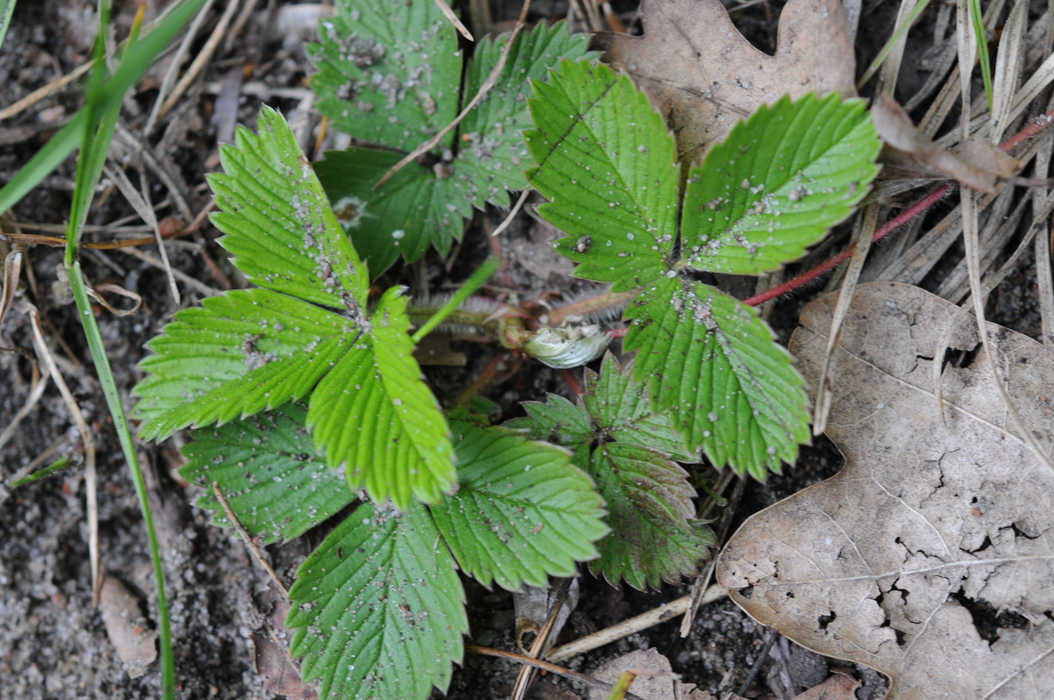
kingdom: Plantae
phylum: Tracheophyta
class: Magnoliopsida
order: Rosales
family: Rosaceae
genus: Fragaria
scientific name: Fragaria viridis
